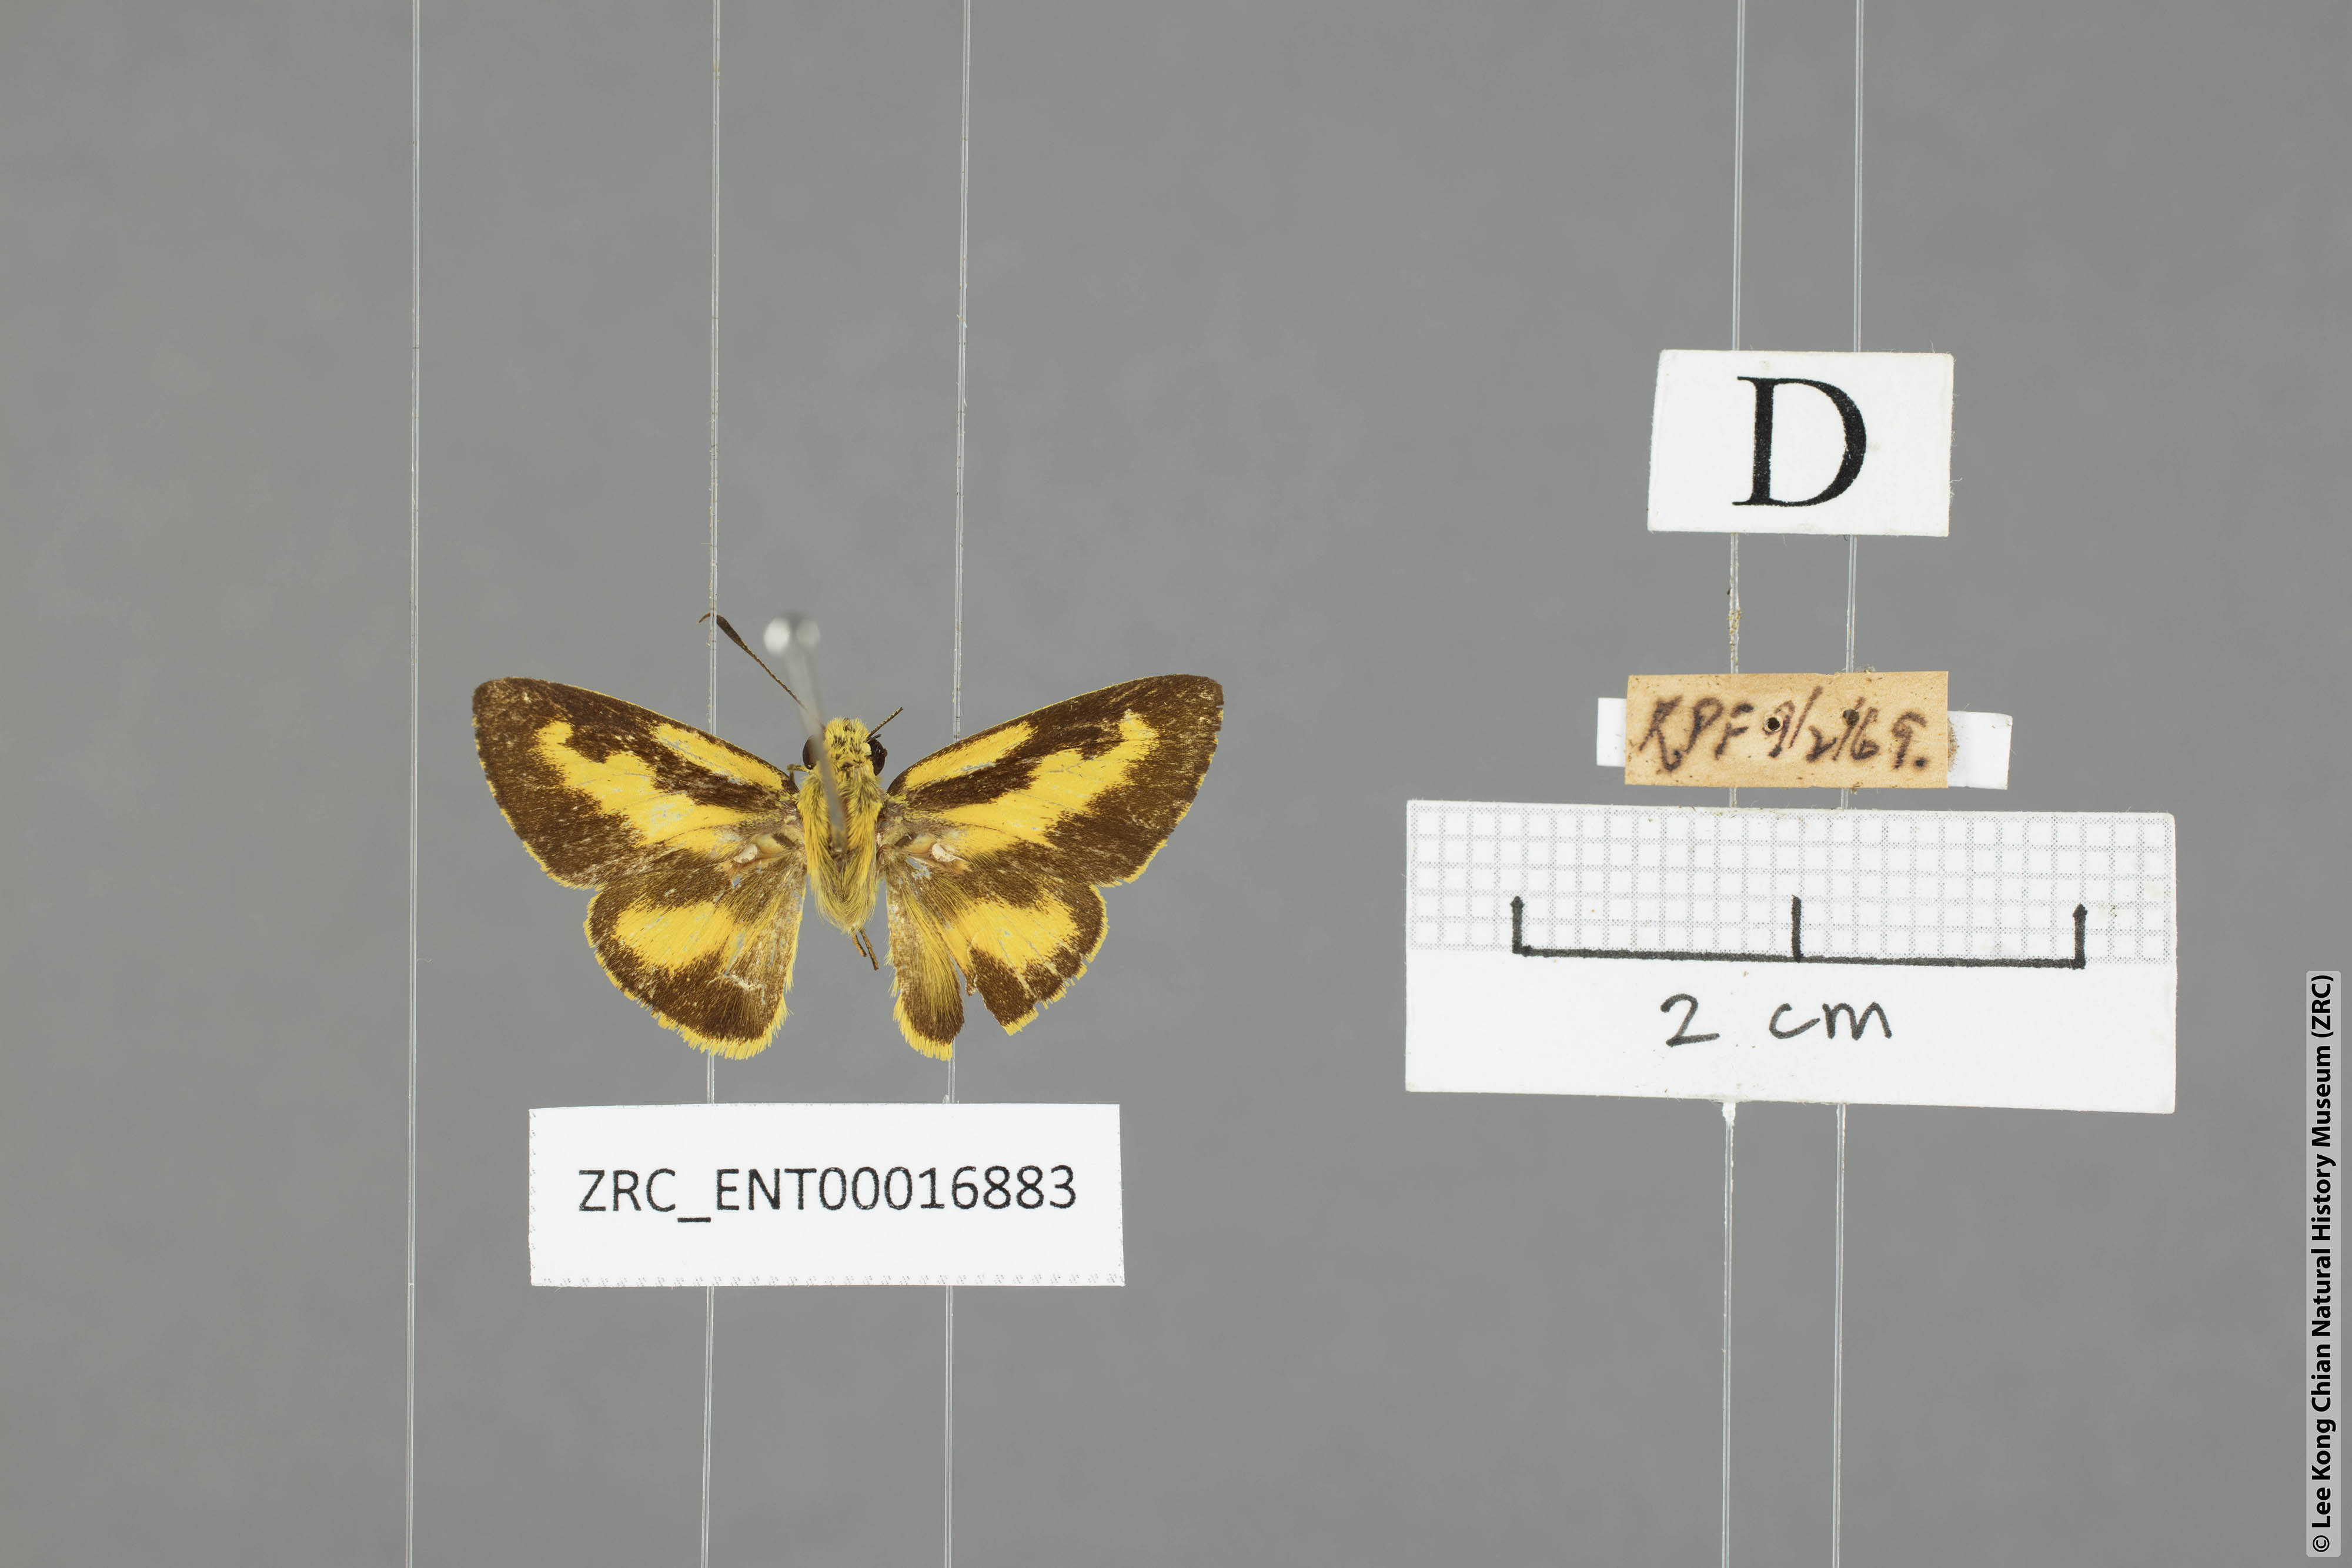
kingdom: Animalia
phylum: Arthropoda
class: Insecta
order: Lepidoptera
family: Hesperiidae
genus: Cupitha
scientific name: Cupitha purreea
